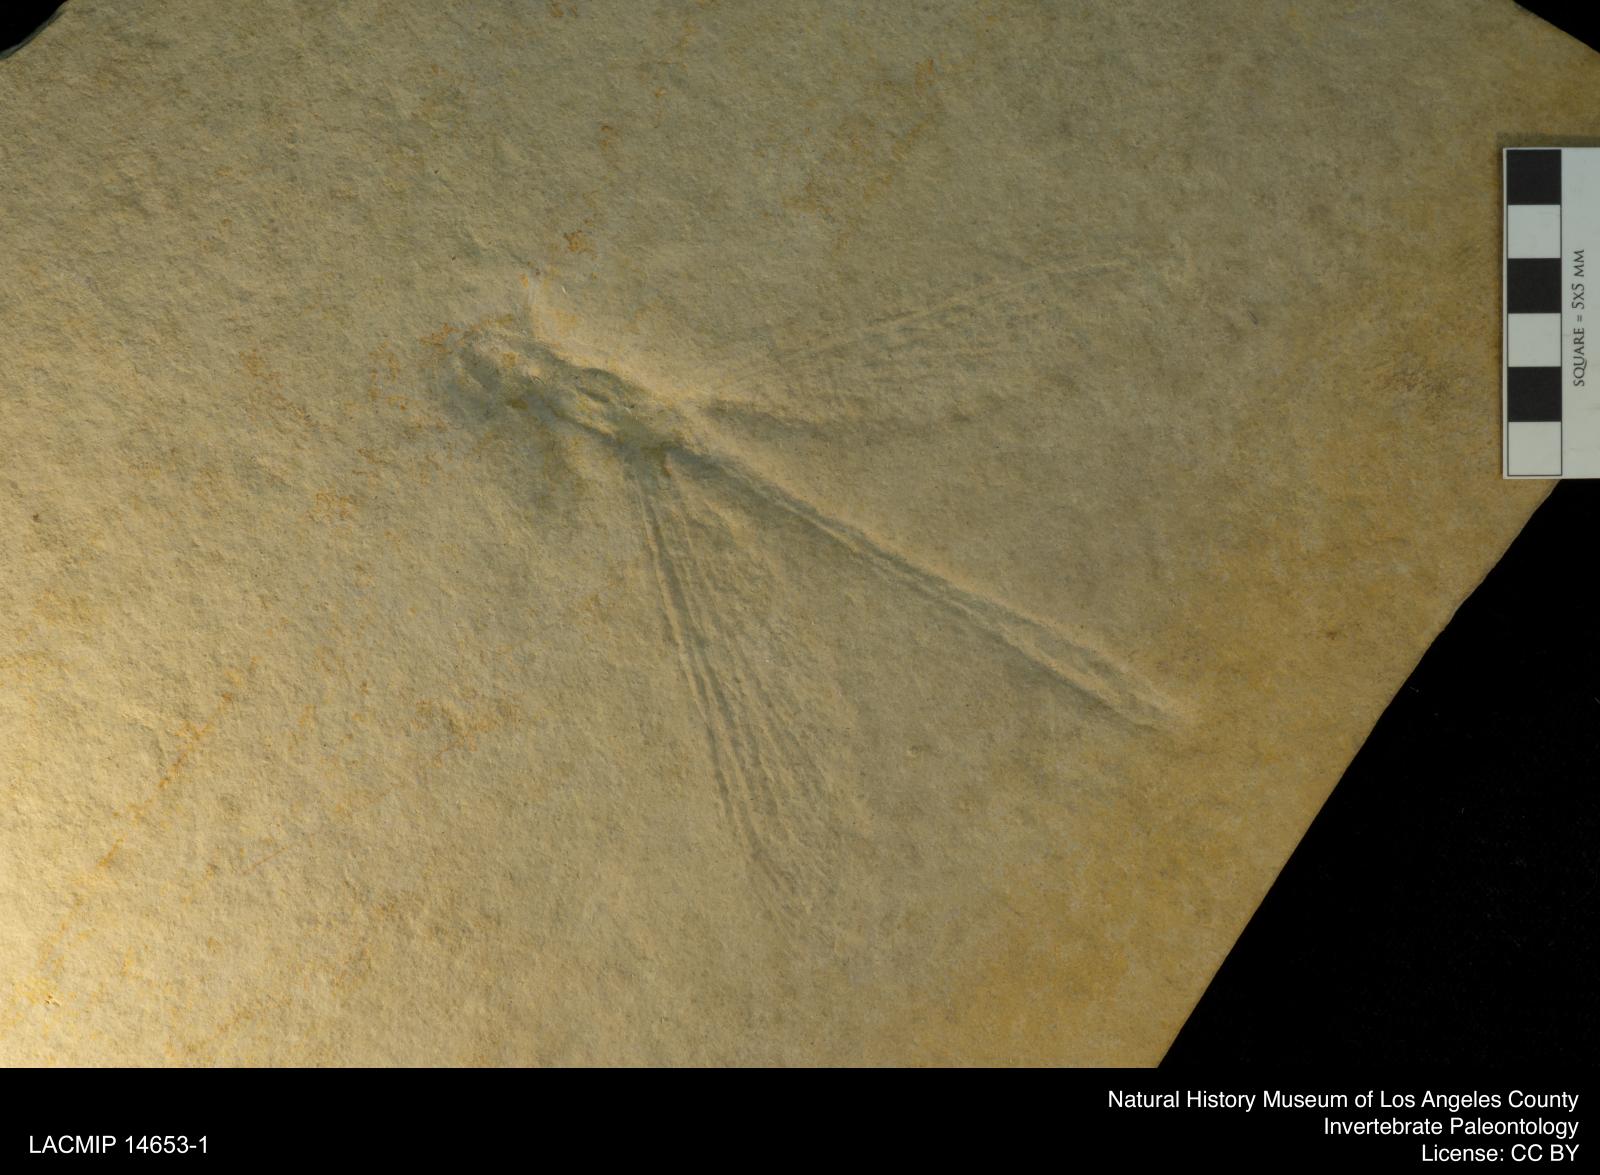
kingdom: Animalia
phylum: Arthropoda
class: Insecta
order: Odonata
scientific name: Odonata
